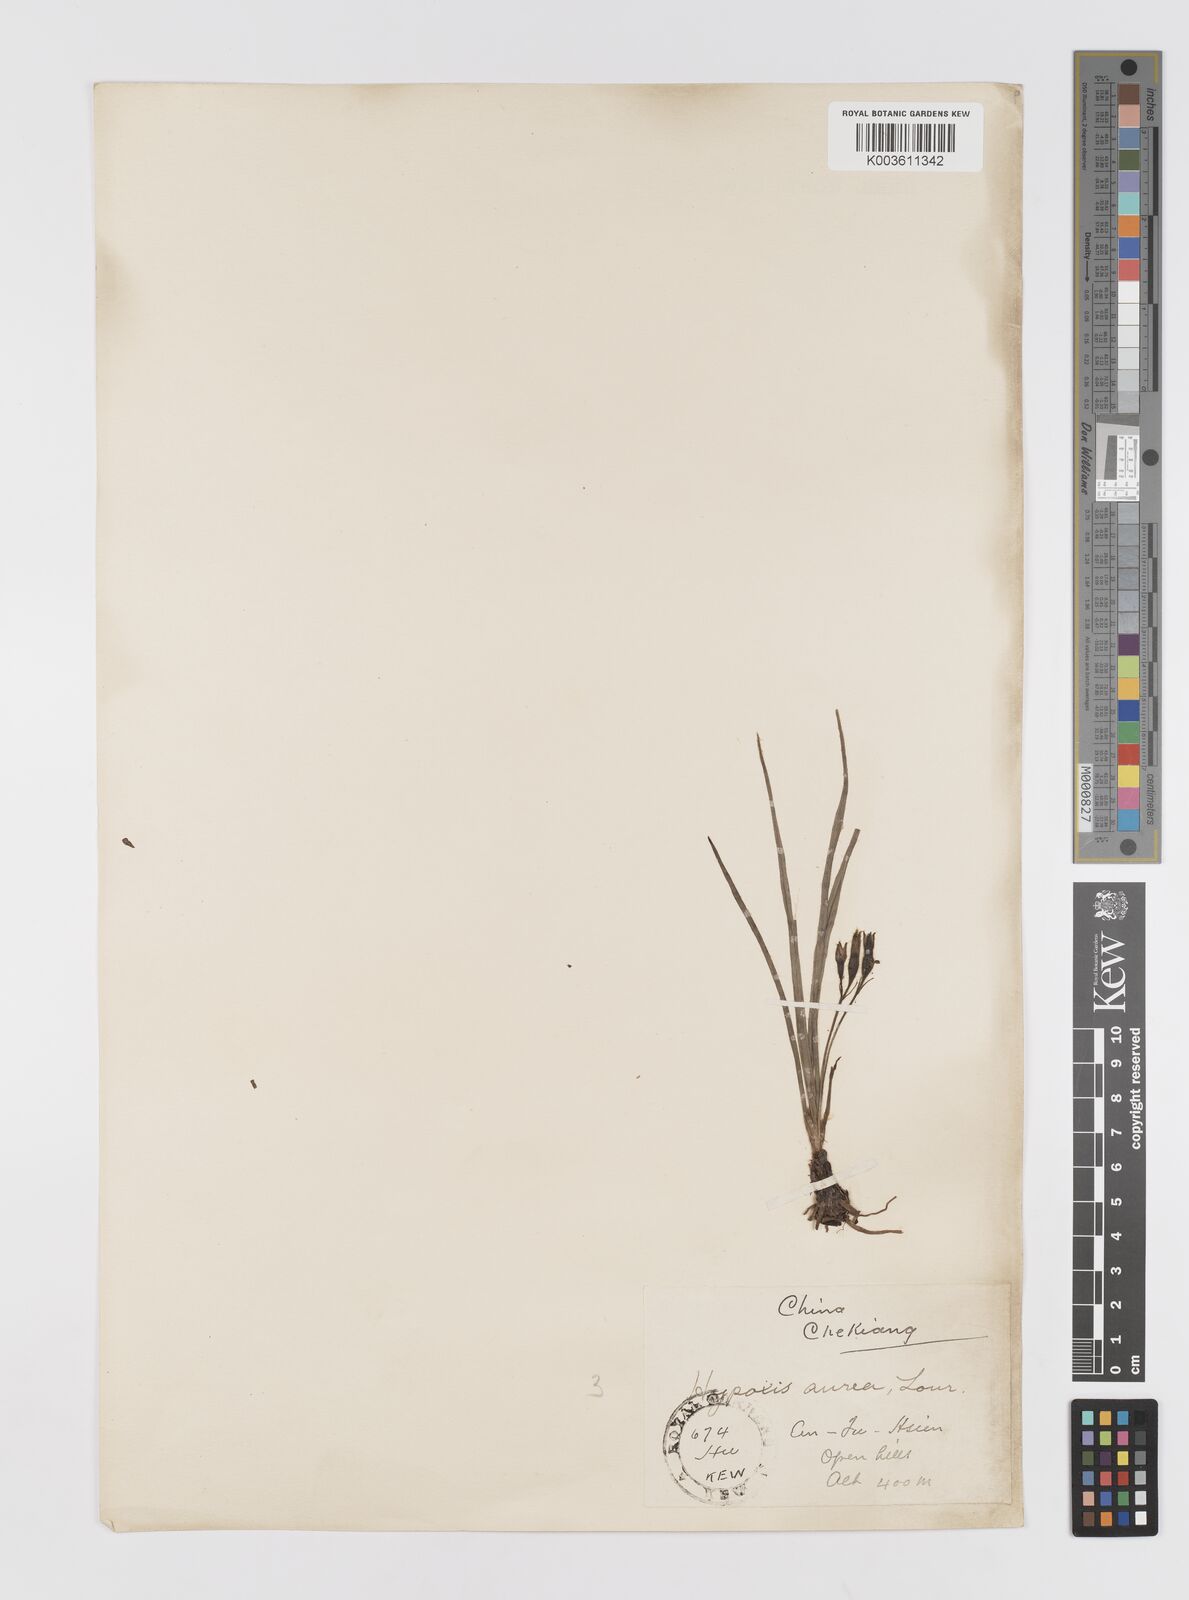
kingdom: Plantae
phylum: Tracheophyta
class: Liliopsida
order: Asparagales
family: Hypoxidaceae
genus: Hypoxis
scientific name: Hypoxis aurea
